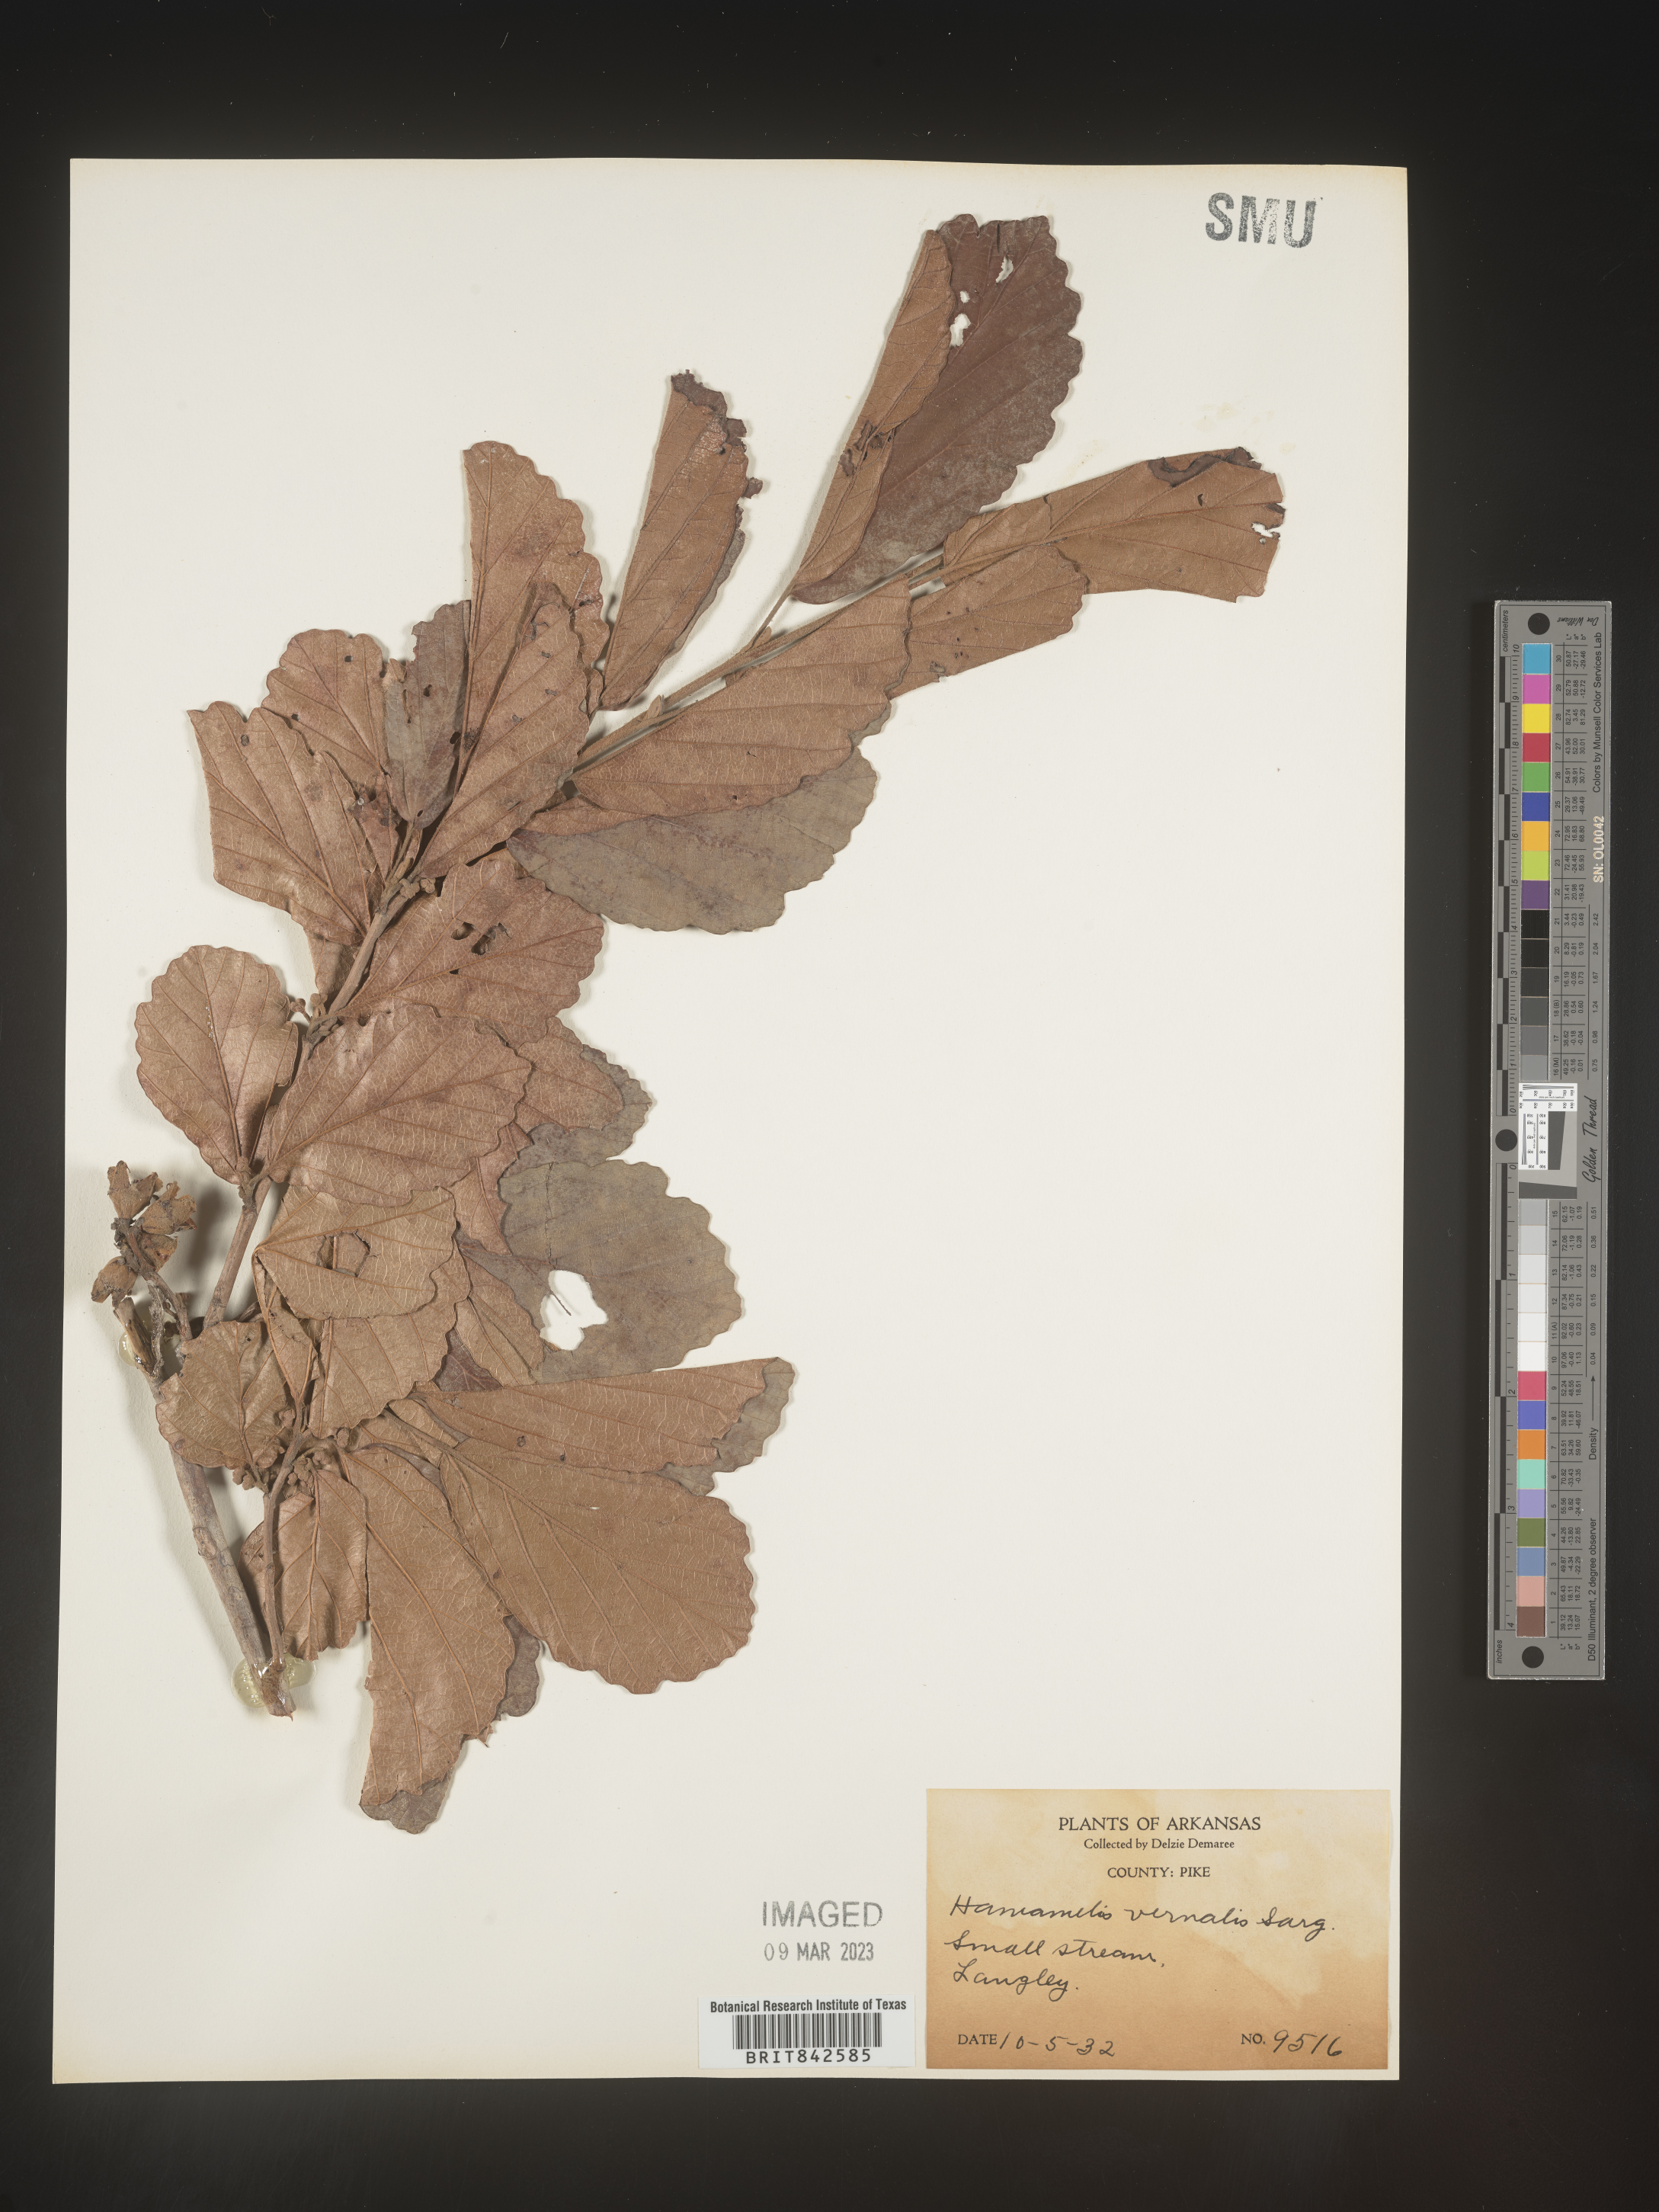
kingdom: Plantae
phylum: Tracheophyta
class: Magnoliopsida
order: Saxifragales
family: Hamamelidaceae
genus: Hamamelis
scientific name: Hamamelis vernalis
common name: Ozark witch-hazel
